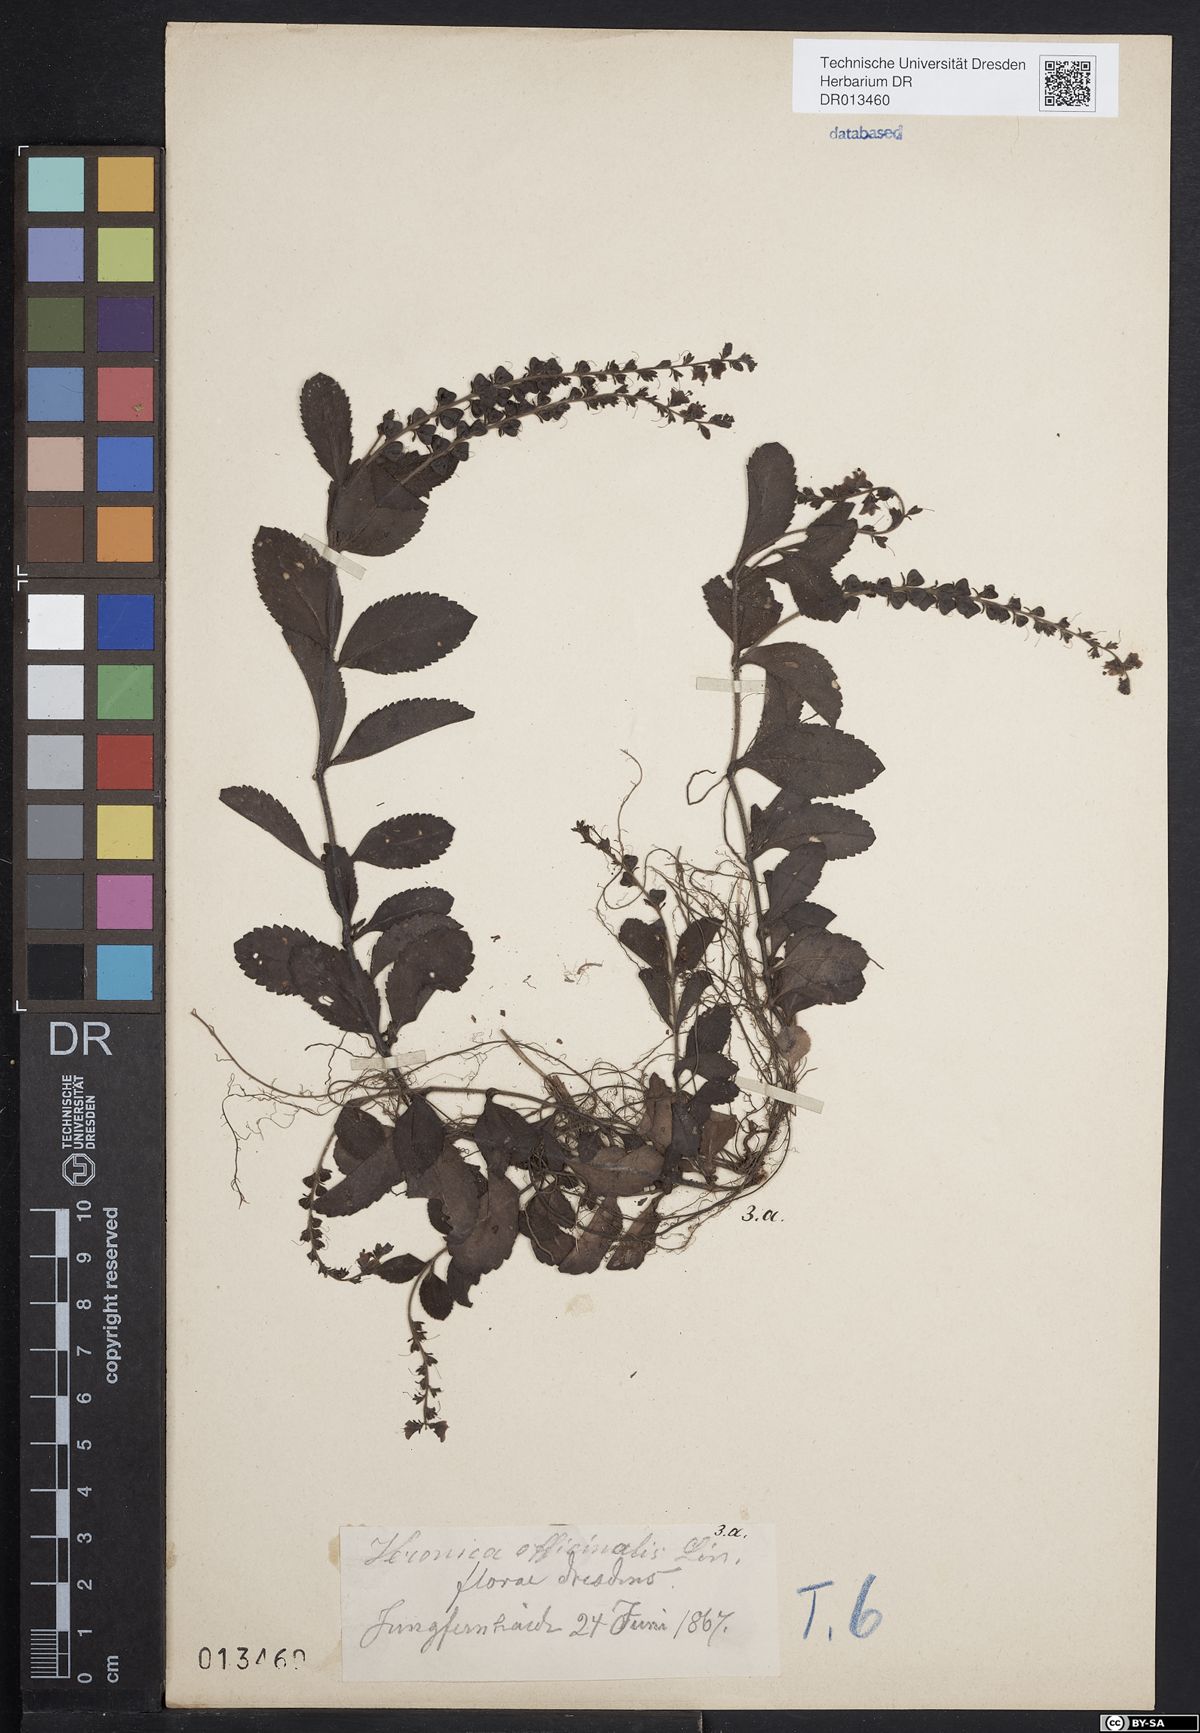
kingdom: Plantae
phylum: Tracheophyta
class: Magnoliopsida
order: Lamiales
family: Plantaginaceae
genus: Veronica
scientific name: Veronica officinalis
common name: Common speedwell
